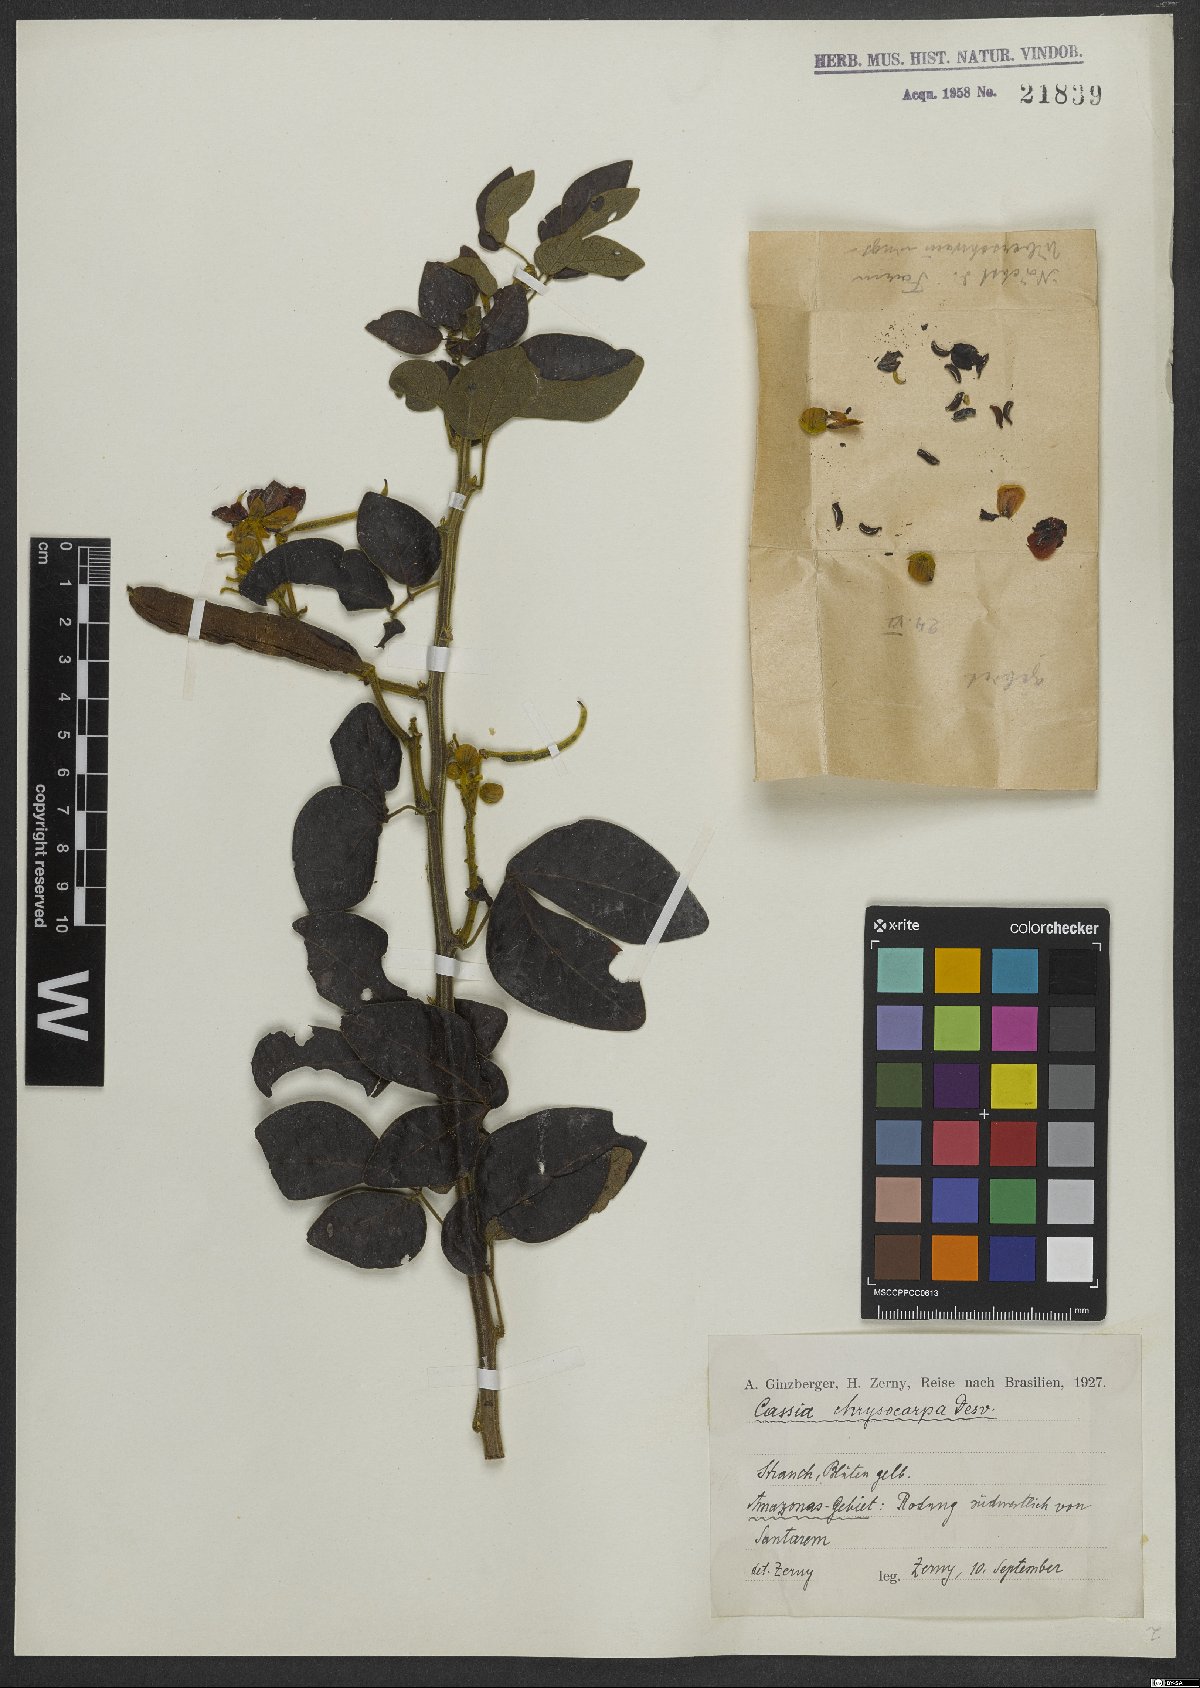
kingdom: Plantae
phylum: Tracheophyta
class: Magnoliopsida
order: Fabales
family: Fabaceae
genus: Senna
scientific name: Senna chrysocarpa
